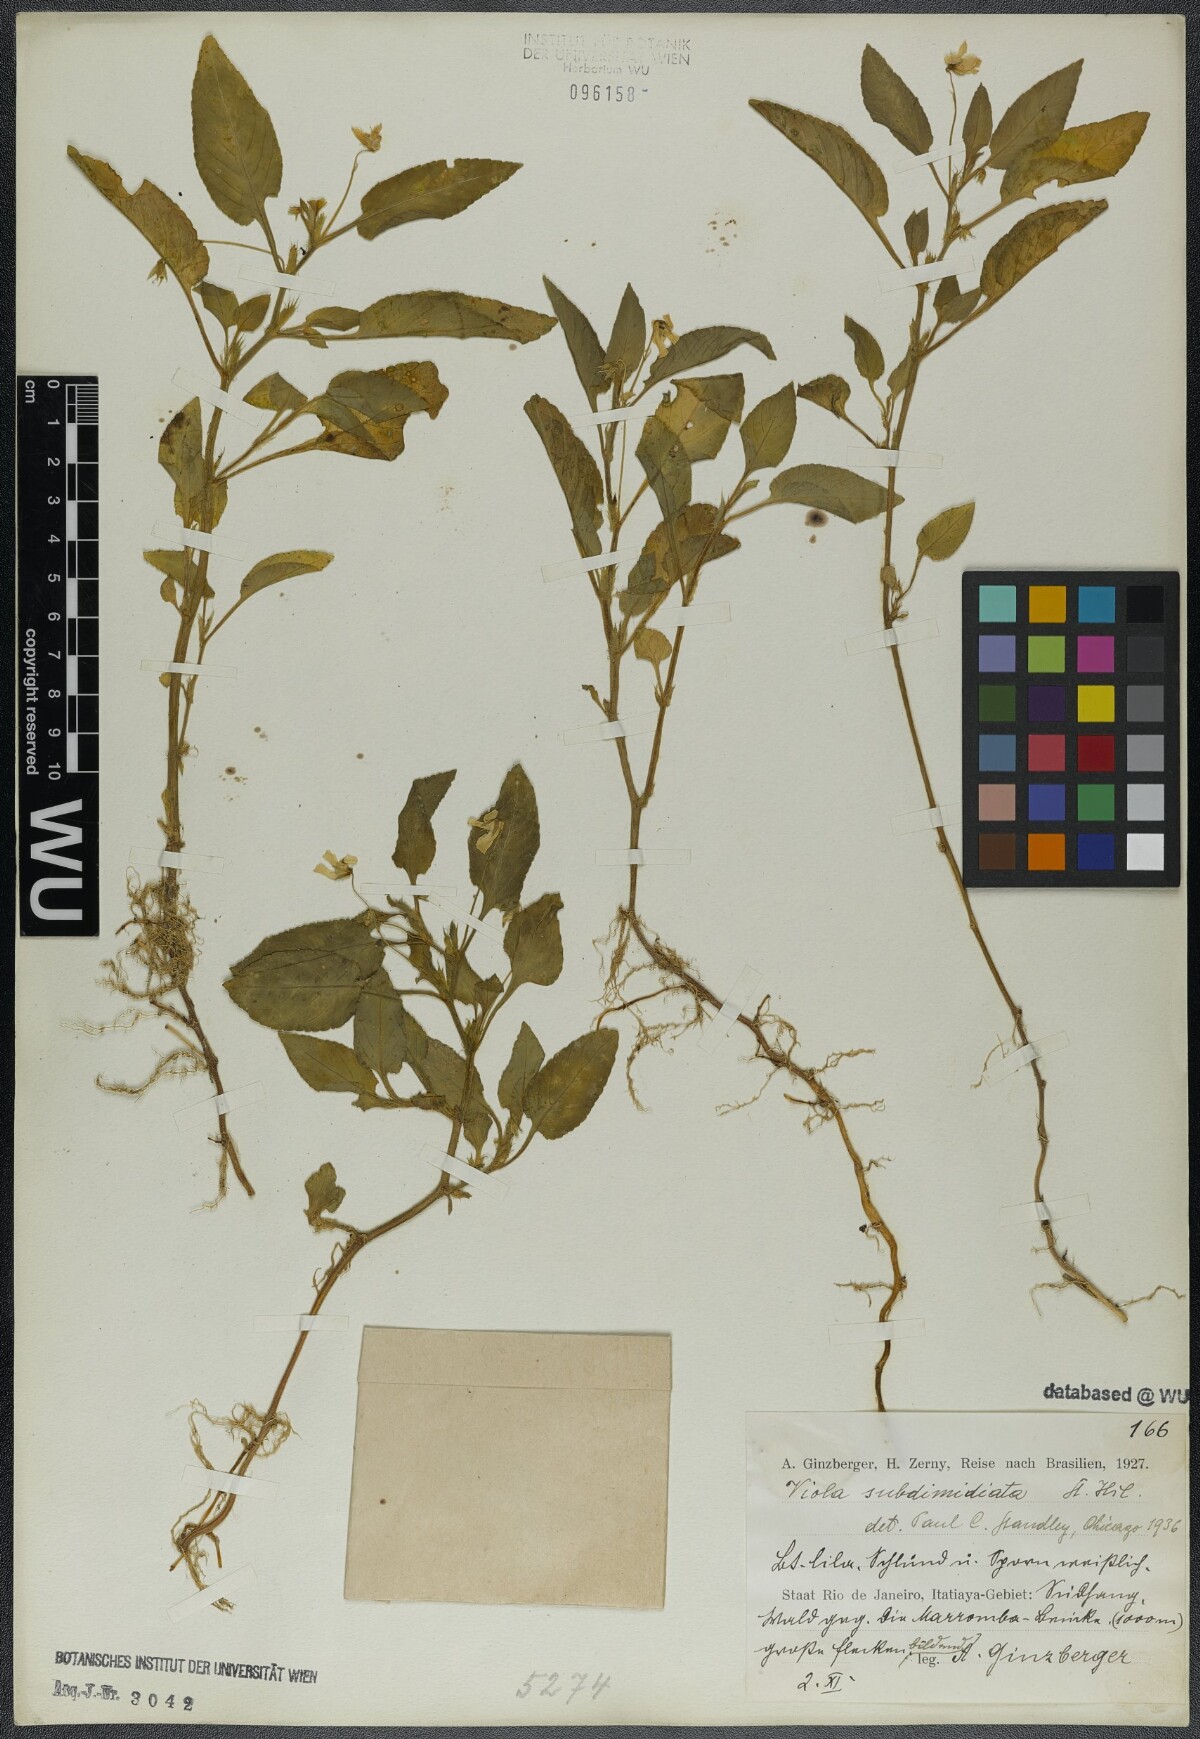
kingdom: Plantae
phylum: Tracheophyta
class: Magnoliopsida
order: Malpighiales
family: Violaceae
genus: Viola
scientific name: Viola subdimidiata
